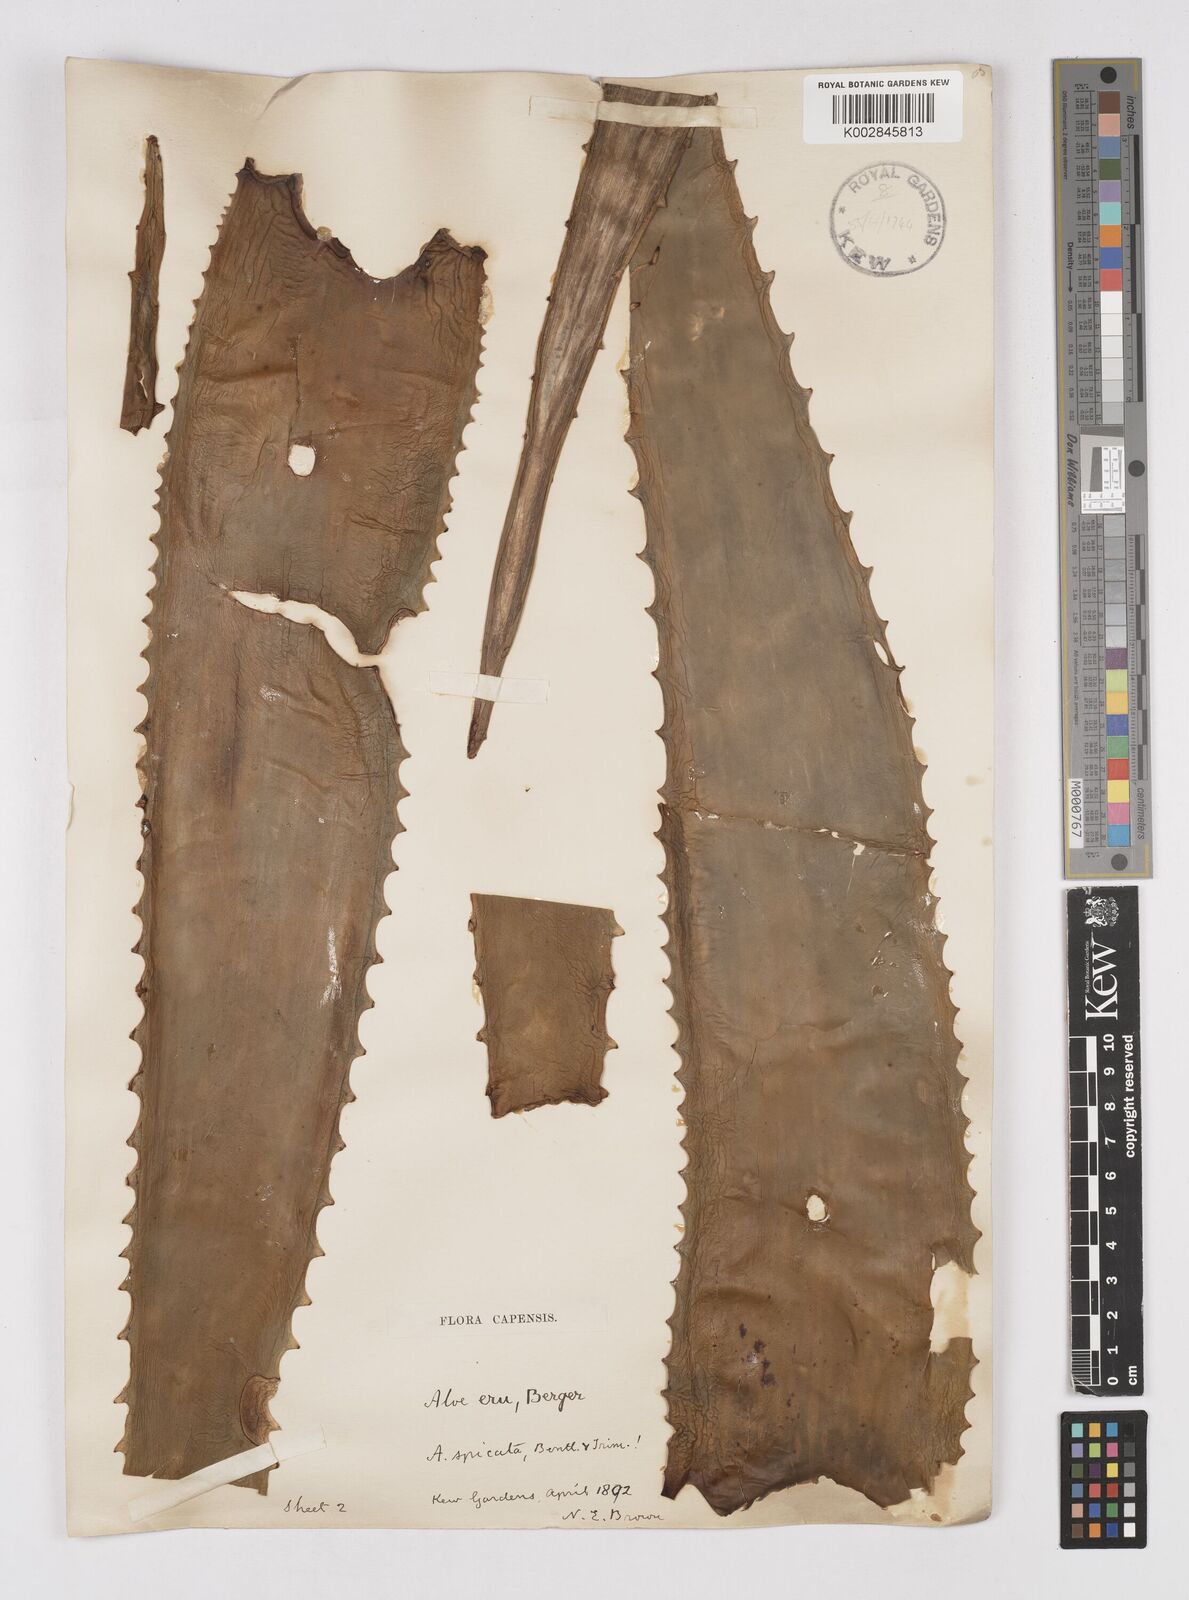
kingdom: Plantae
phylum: Tracheophyta
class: Liliopsida
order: Asparagales
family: Asphodelaceae
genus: Aloe
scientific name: Aloe camperi
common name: Camper's aloe
